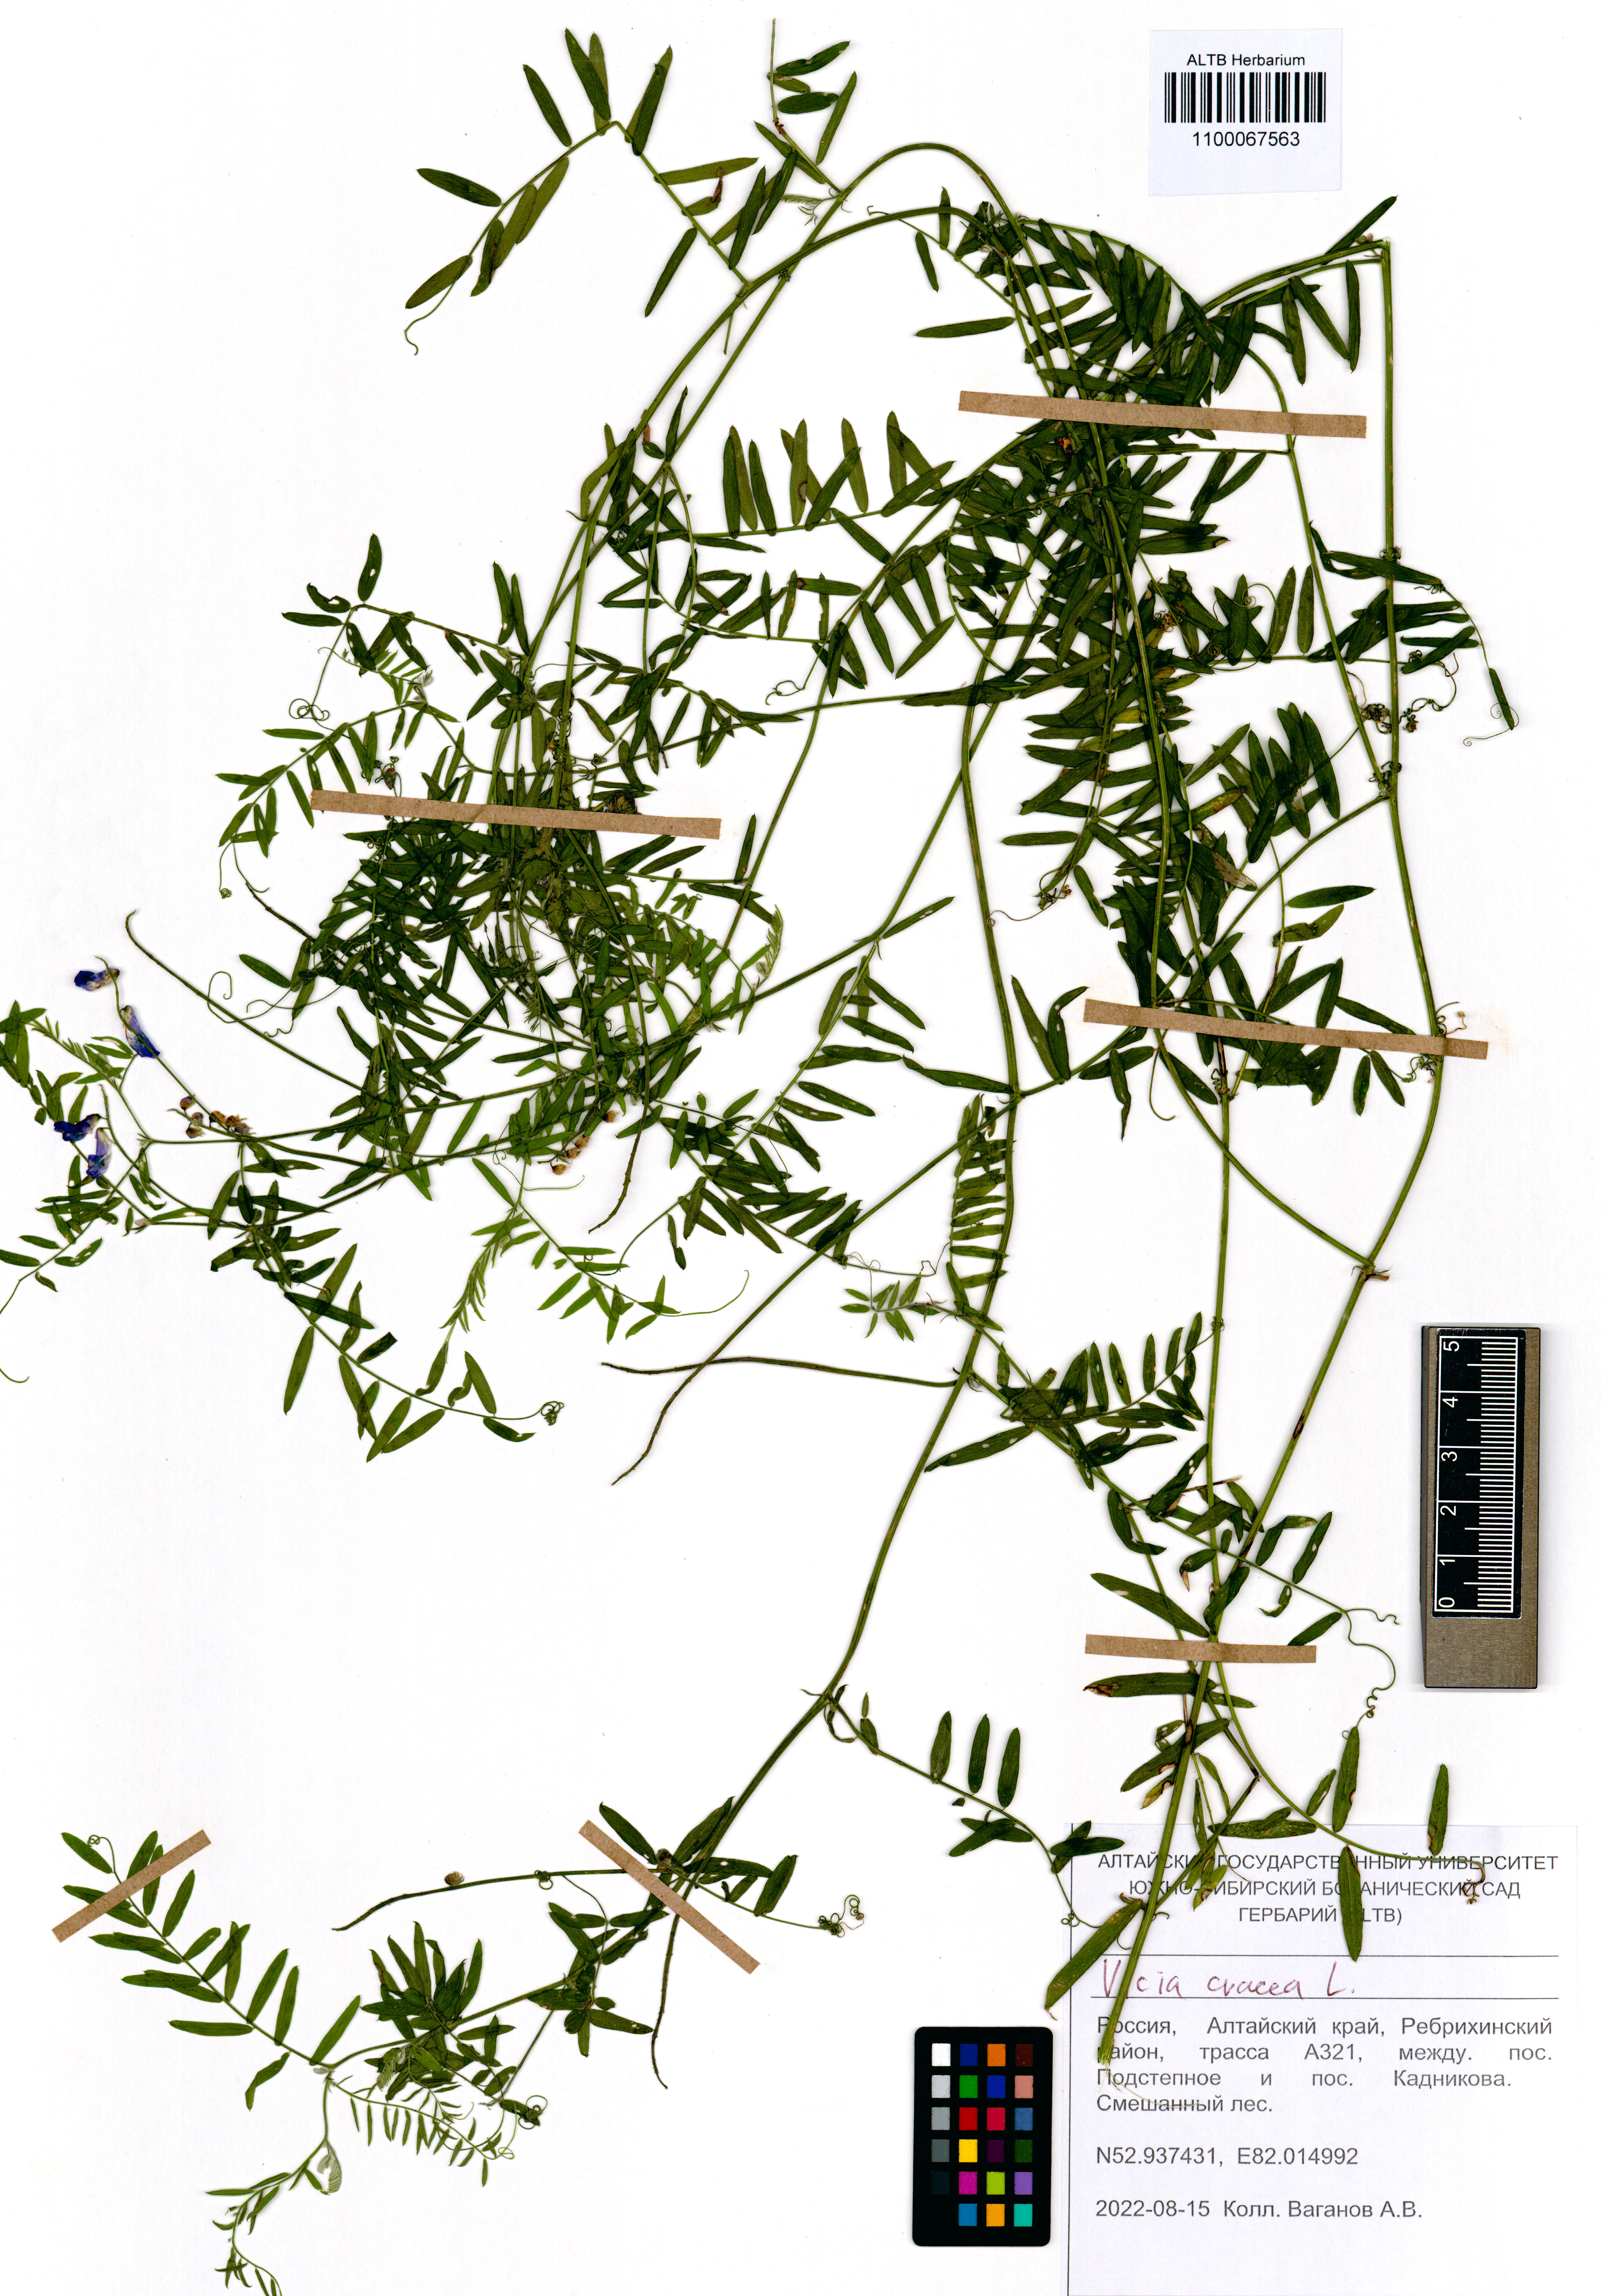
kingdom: Plantae
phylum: Tracheophyta
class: Magnoliopsida
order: Fabales
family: Fabaceae
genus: Vicia
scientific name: Vicia cracca
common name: Bird vetch
